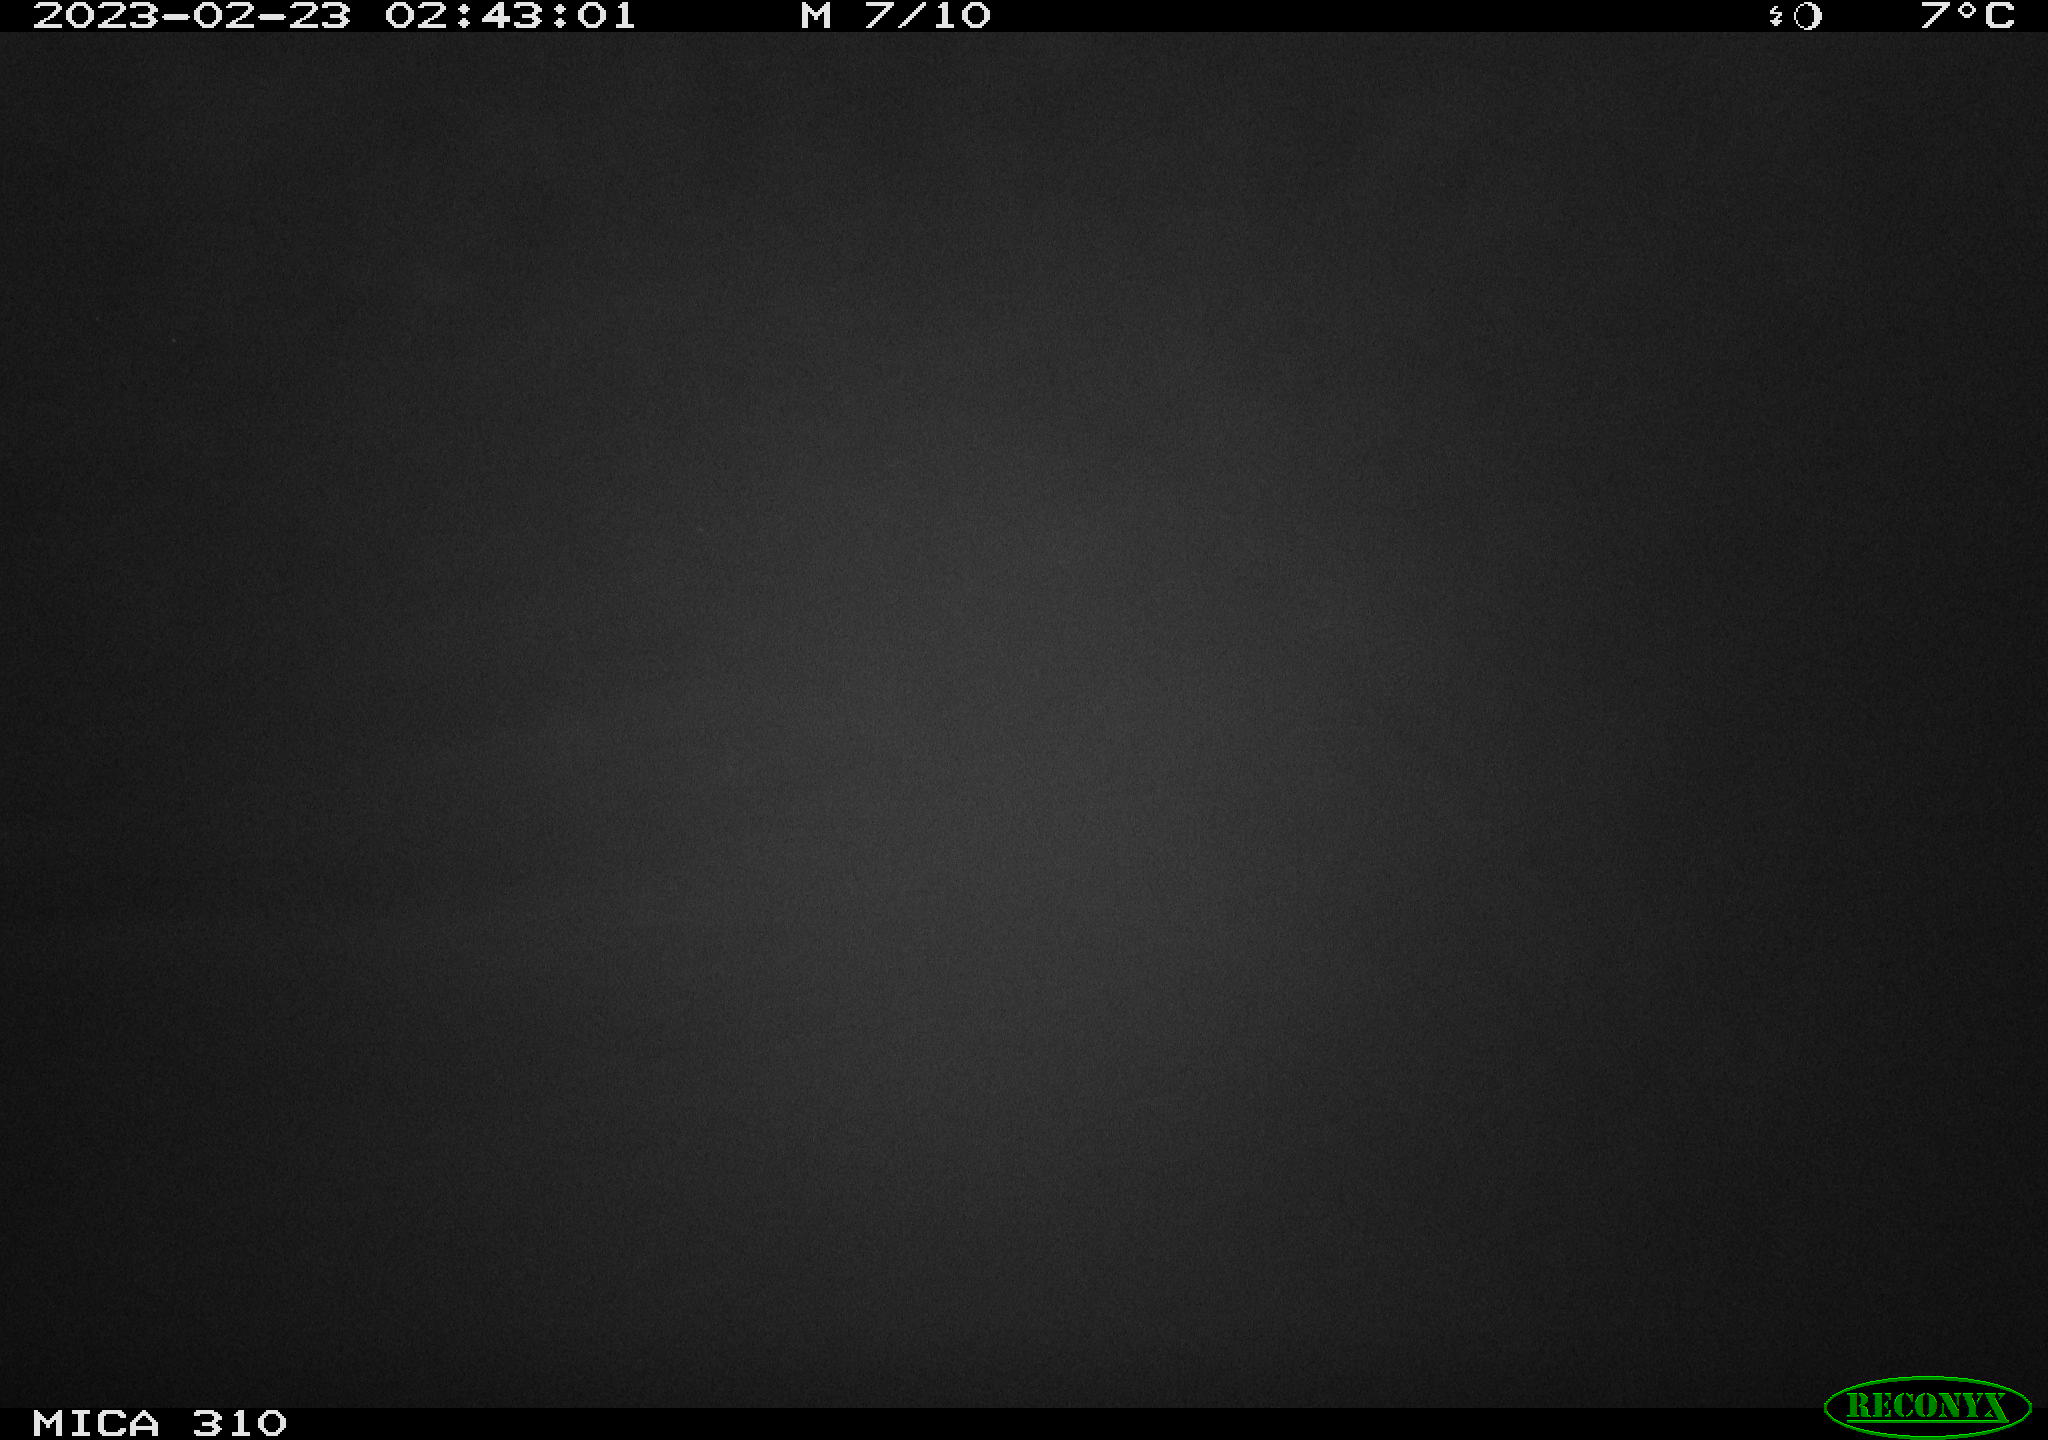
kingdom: Animalia
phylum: Chordata
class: Mammalia
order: Rodentia
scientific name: Rodentia
